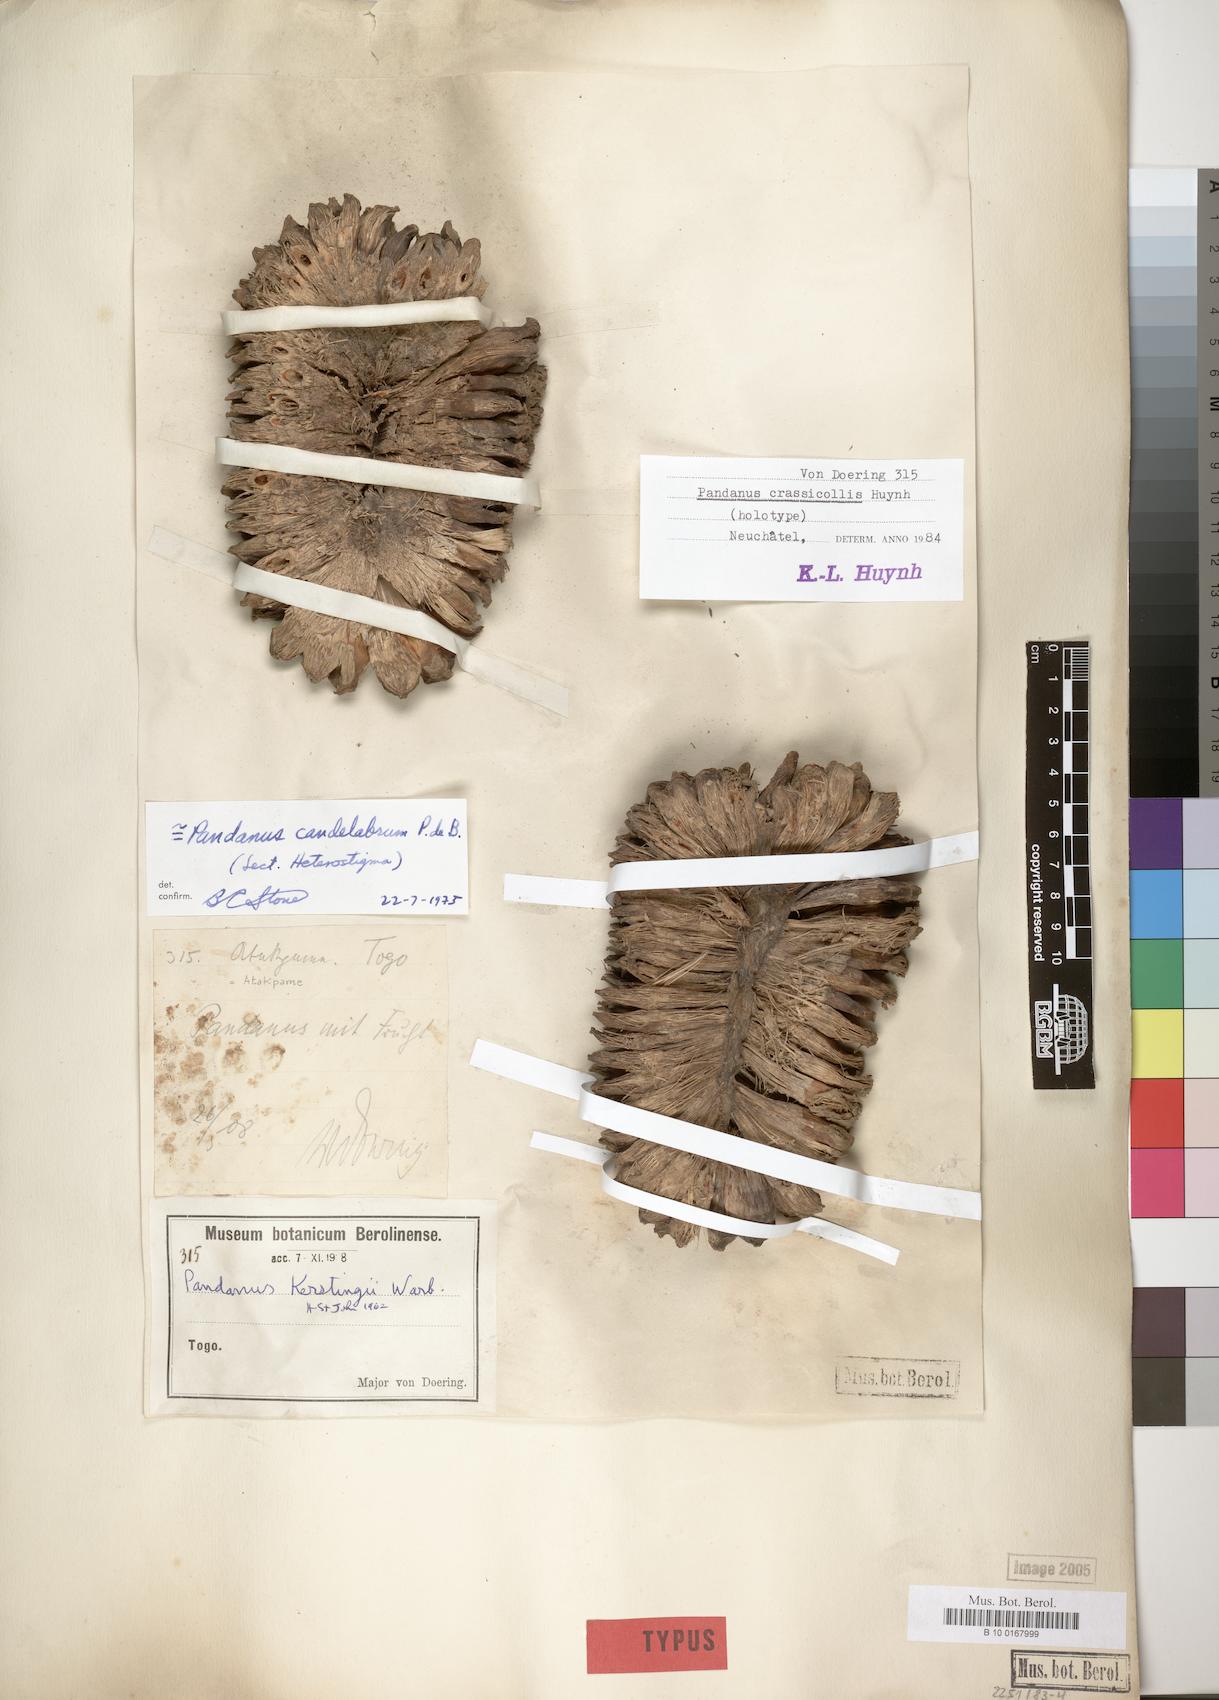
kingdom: Plantae
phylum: Tracheophyta
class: Liliopsida
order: Pandanales
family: Pandanaceae
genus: Pandanus
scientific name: Pandanus candelabrum
